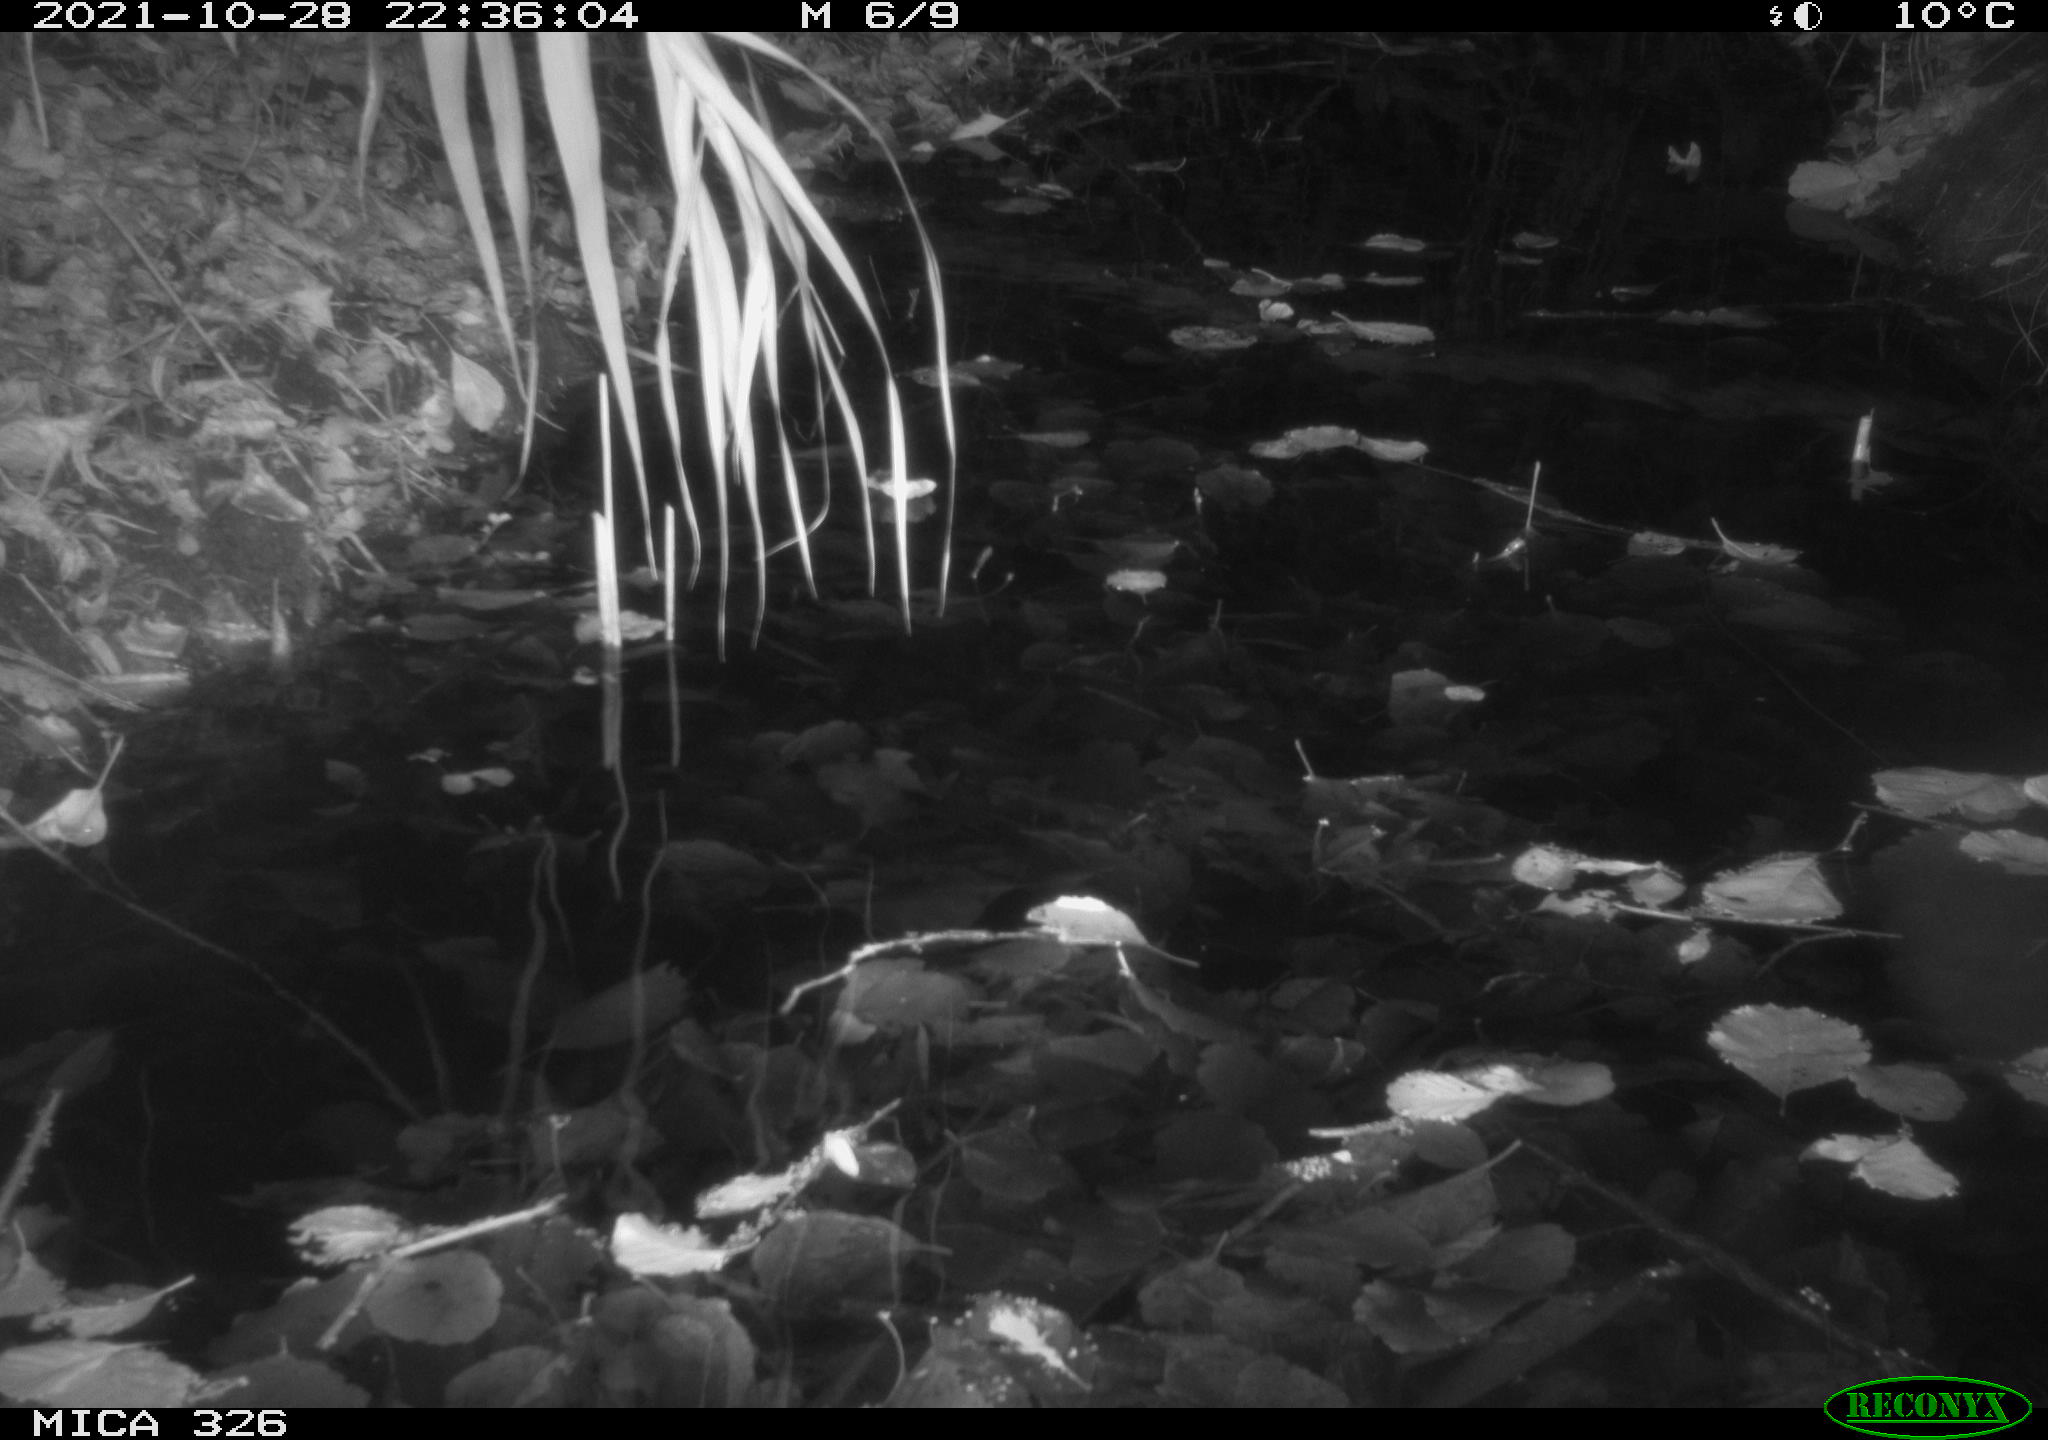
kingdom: Animalia
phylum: Chordata
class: Mammalia
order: Rodentia
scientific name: Rodentia
